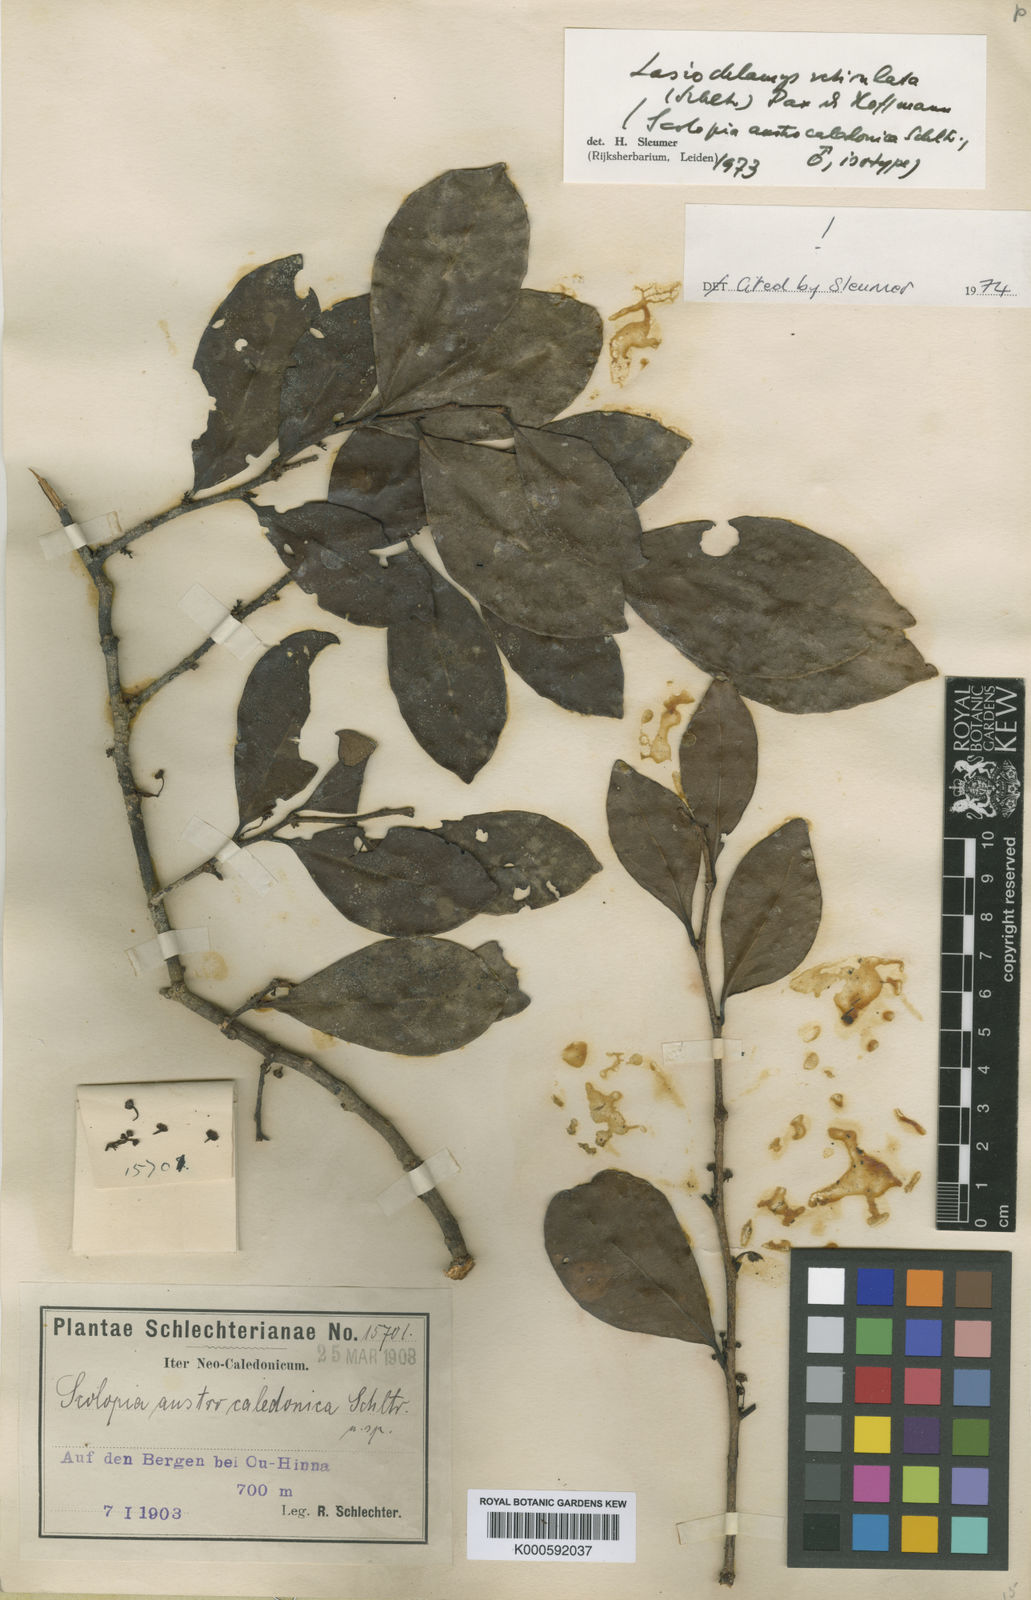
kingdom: Plantae
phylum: Tracheophyta
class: Magnoliopsida
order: Malpighiales
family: Salicaceae
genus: Lasiochlamys
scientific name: Lasiochlamys reticulata
